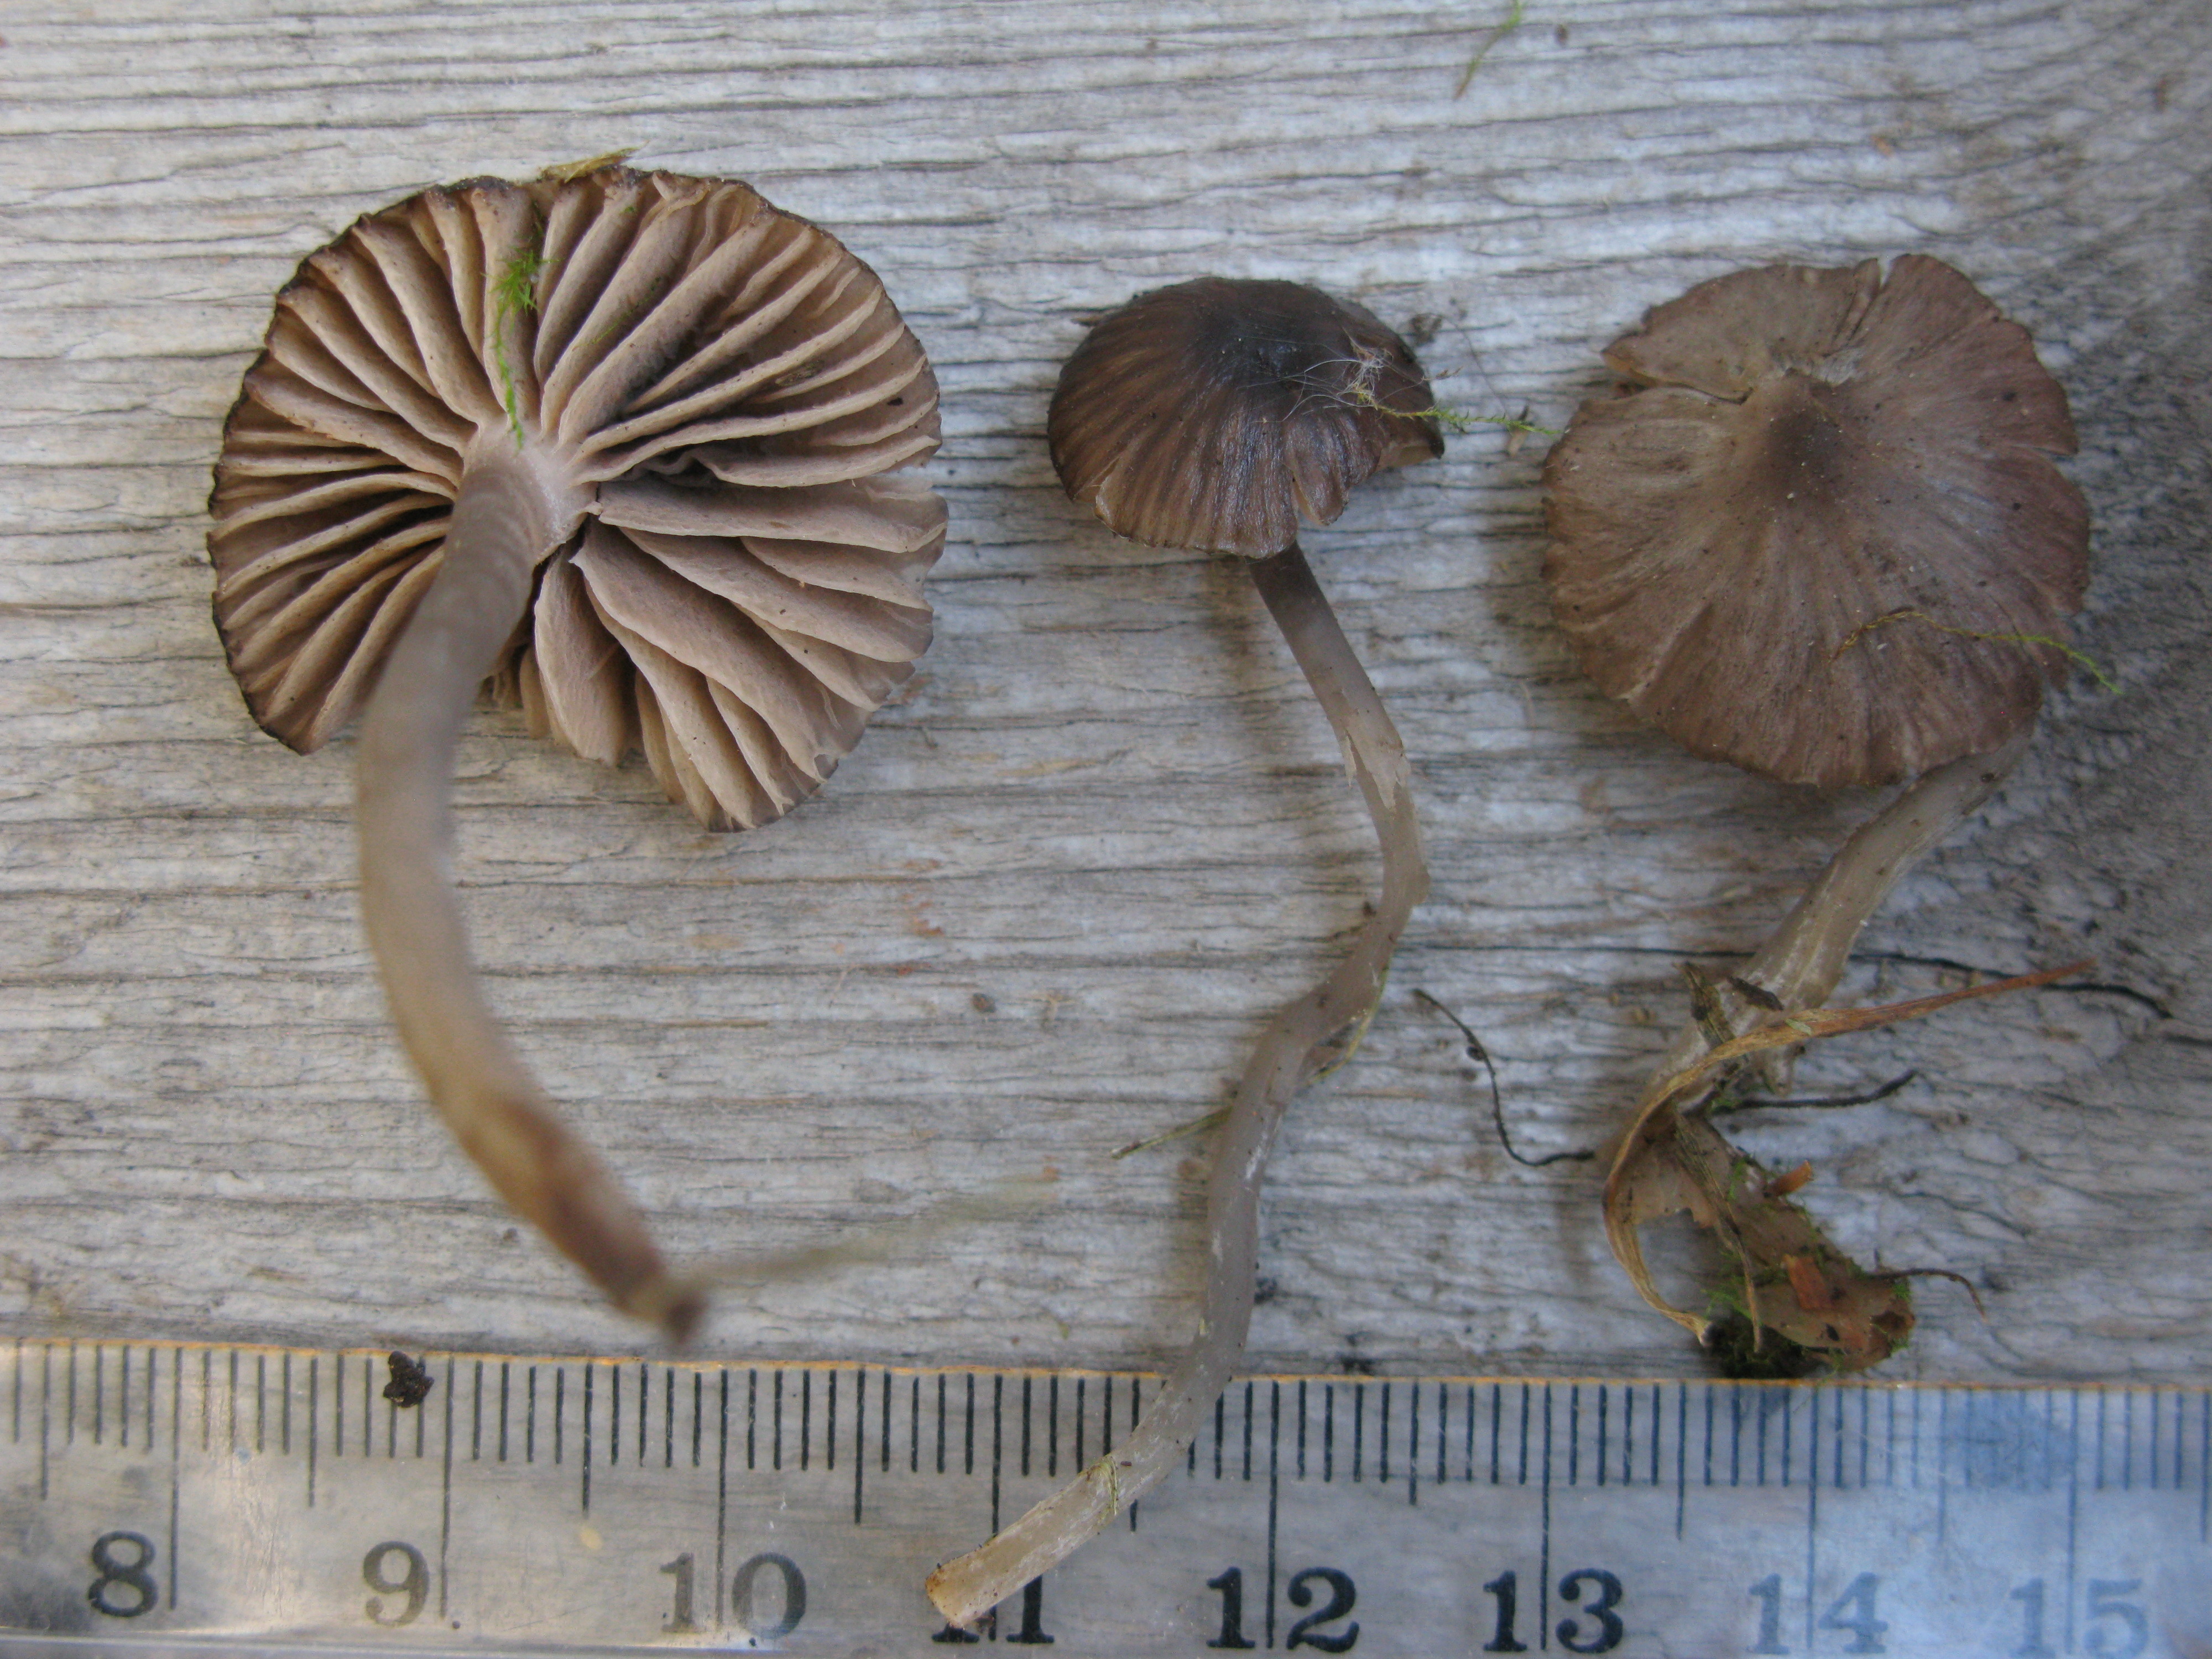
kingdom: Fungi
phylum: Basidiomycota
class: Agaricomycetes
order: Agaricales
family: Entolomataceae
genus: Entoloma
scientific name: Entoloma
